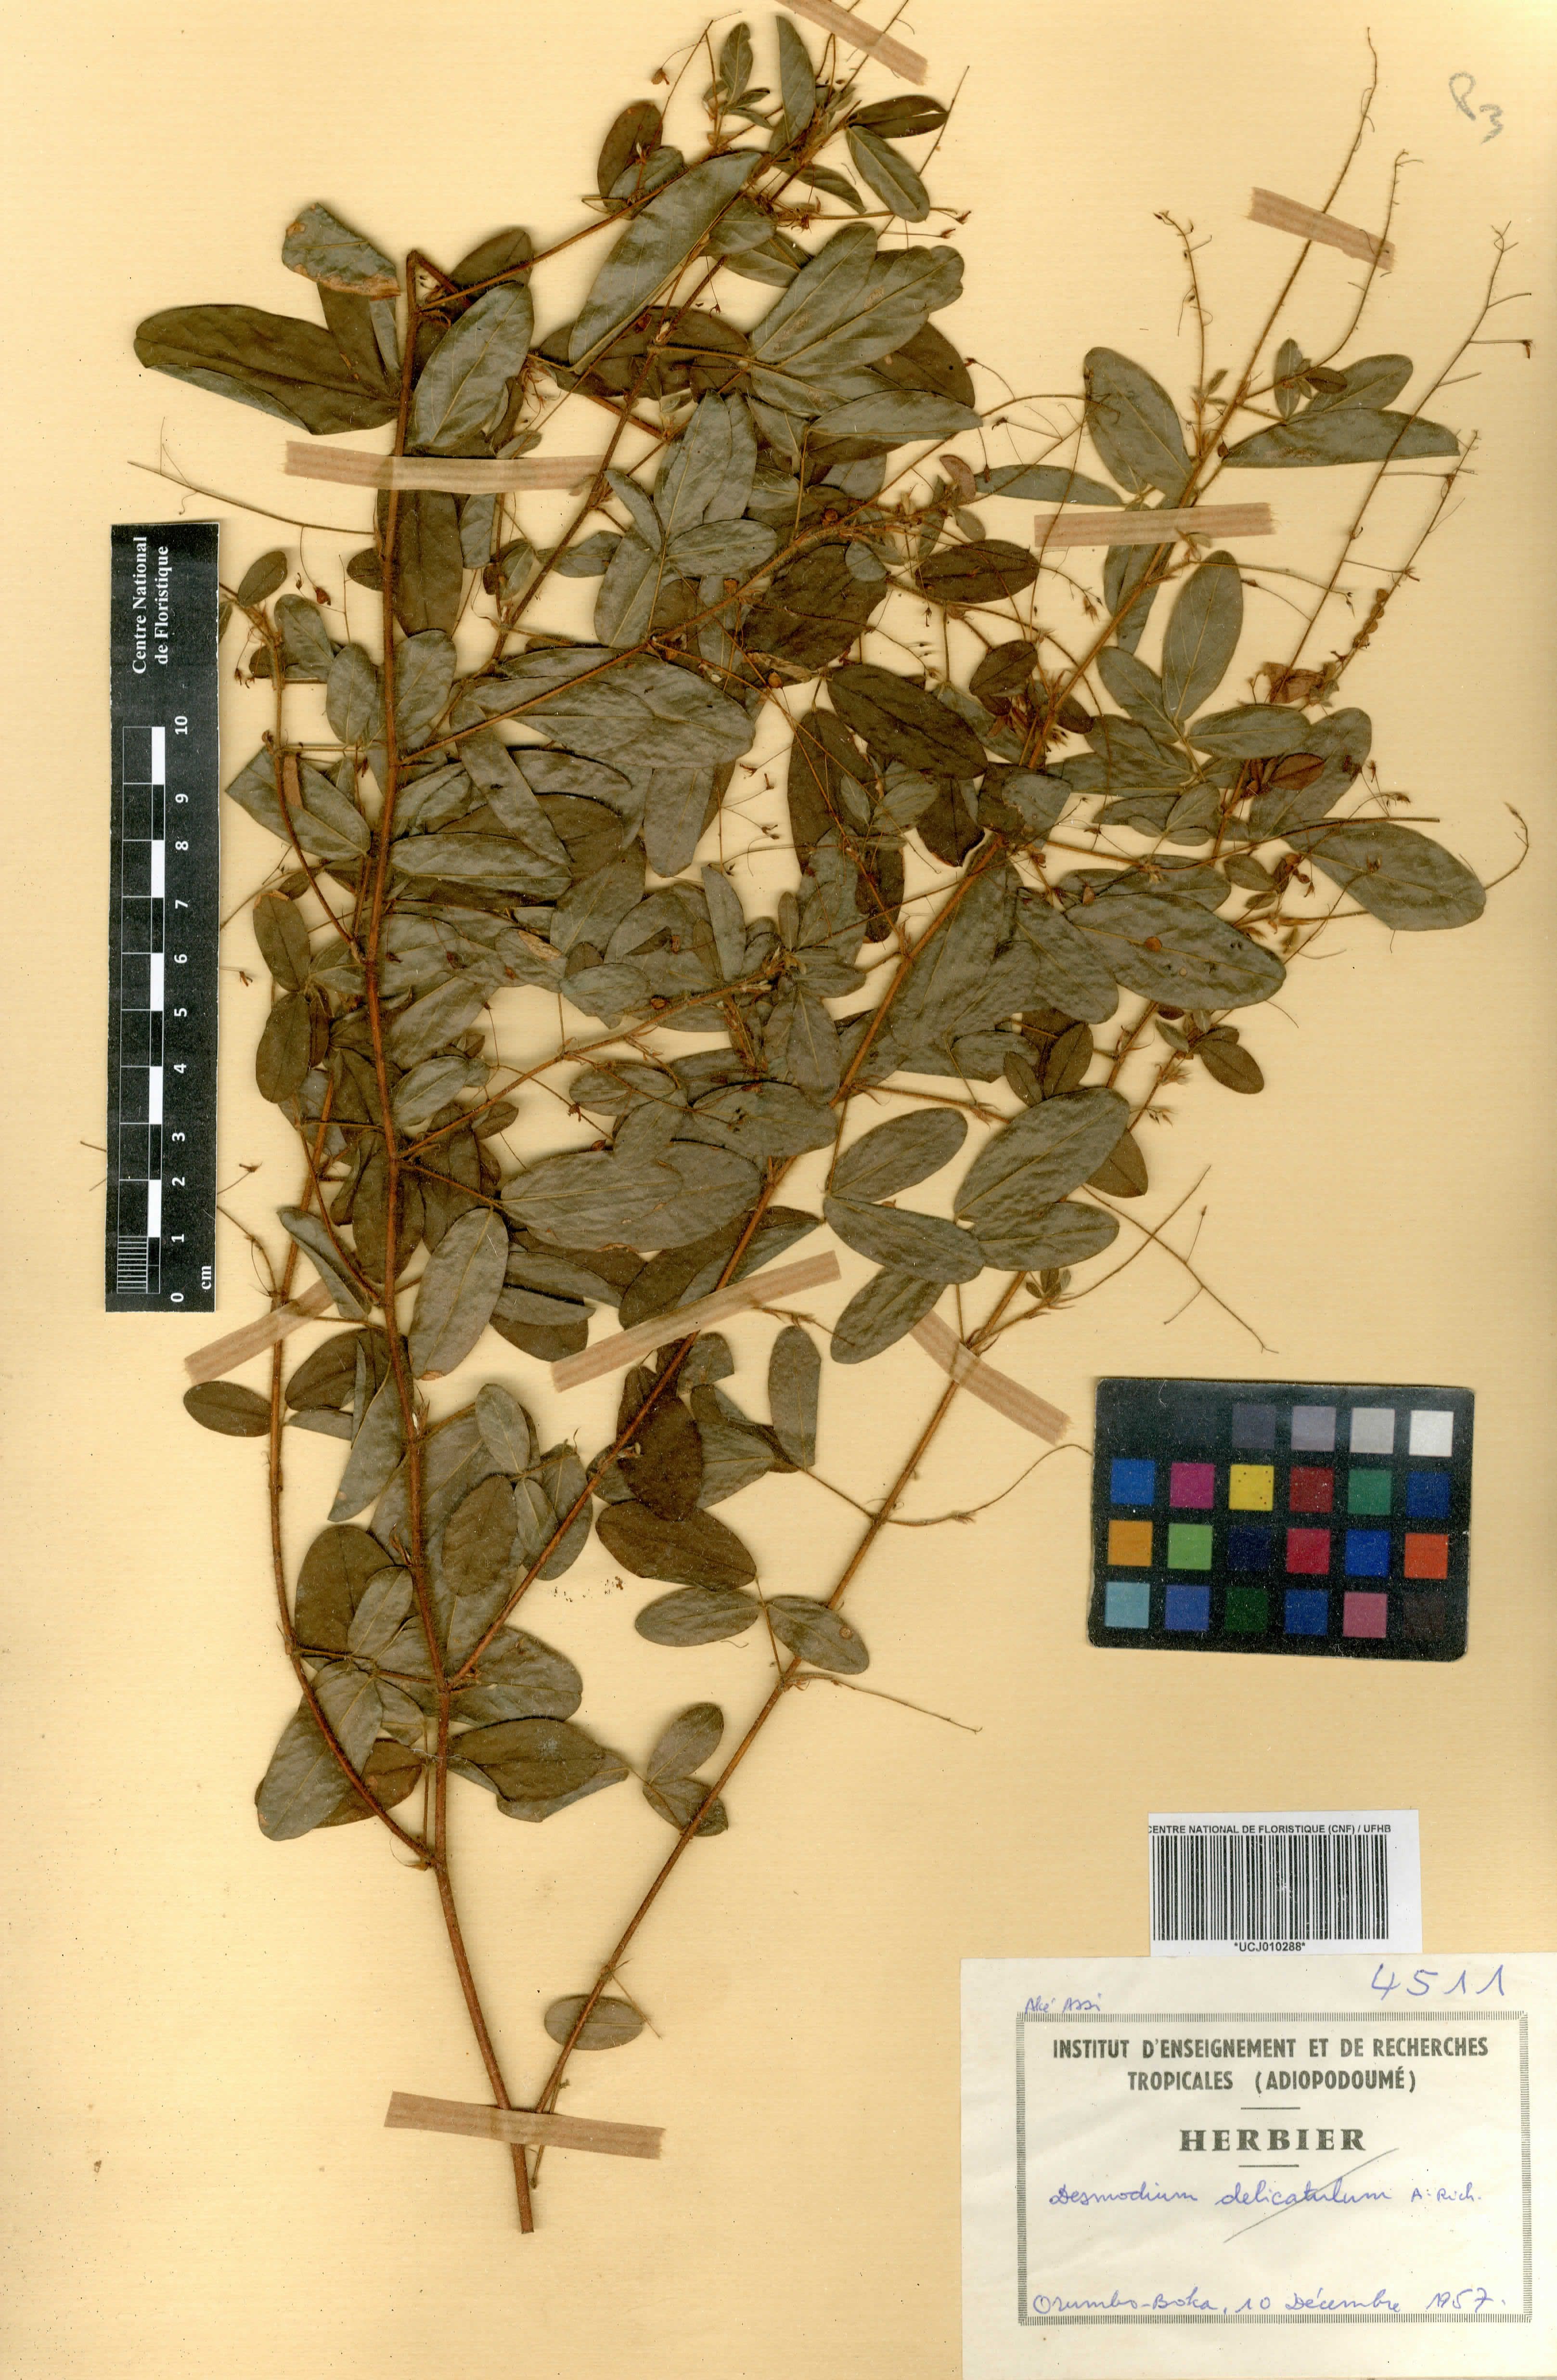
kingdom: Plantae
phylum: Tracheophyta
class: Magnoliopsida
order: Fabales
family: Fabaceae
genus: Grona
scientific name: Grona setigera
